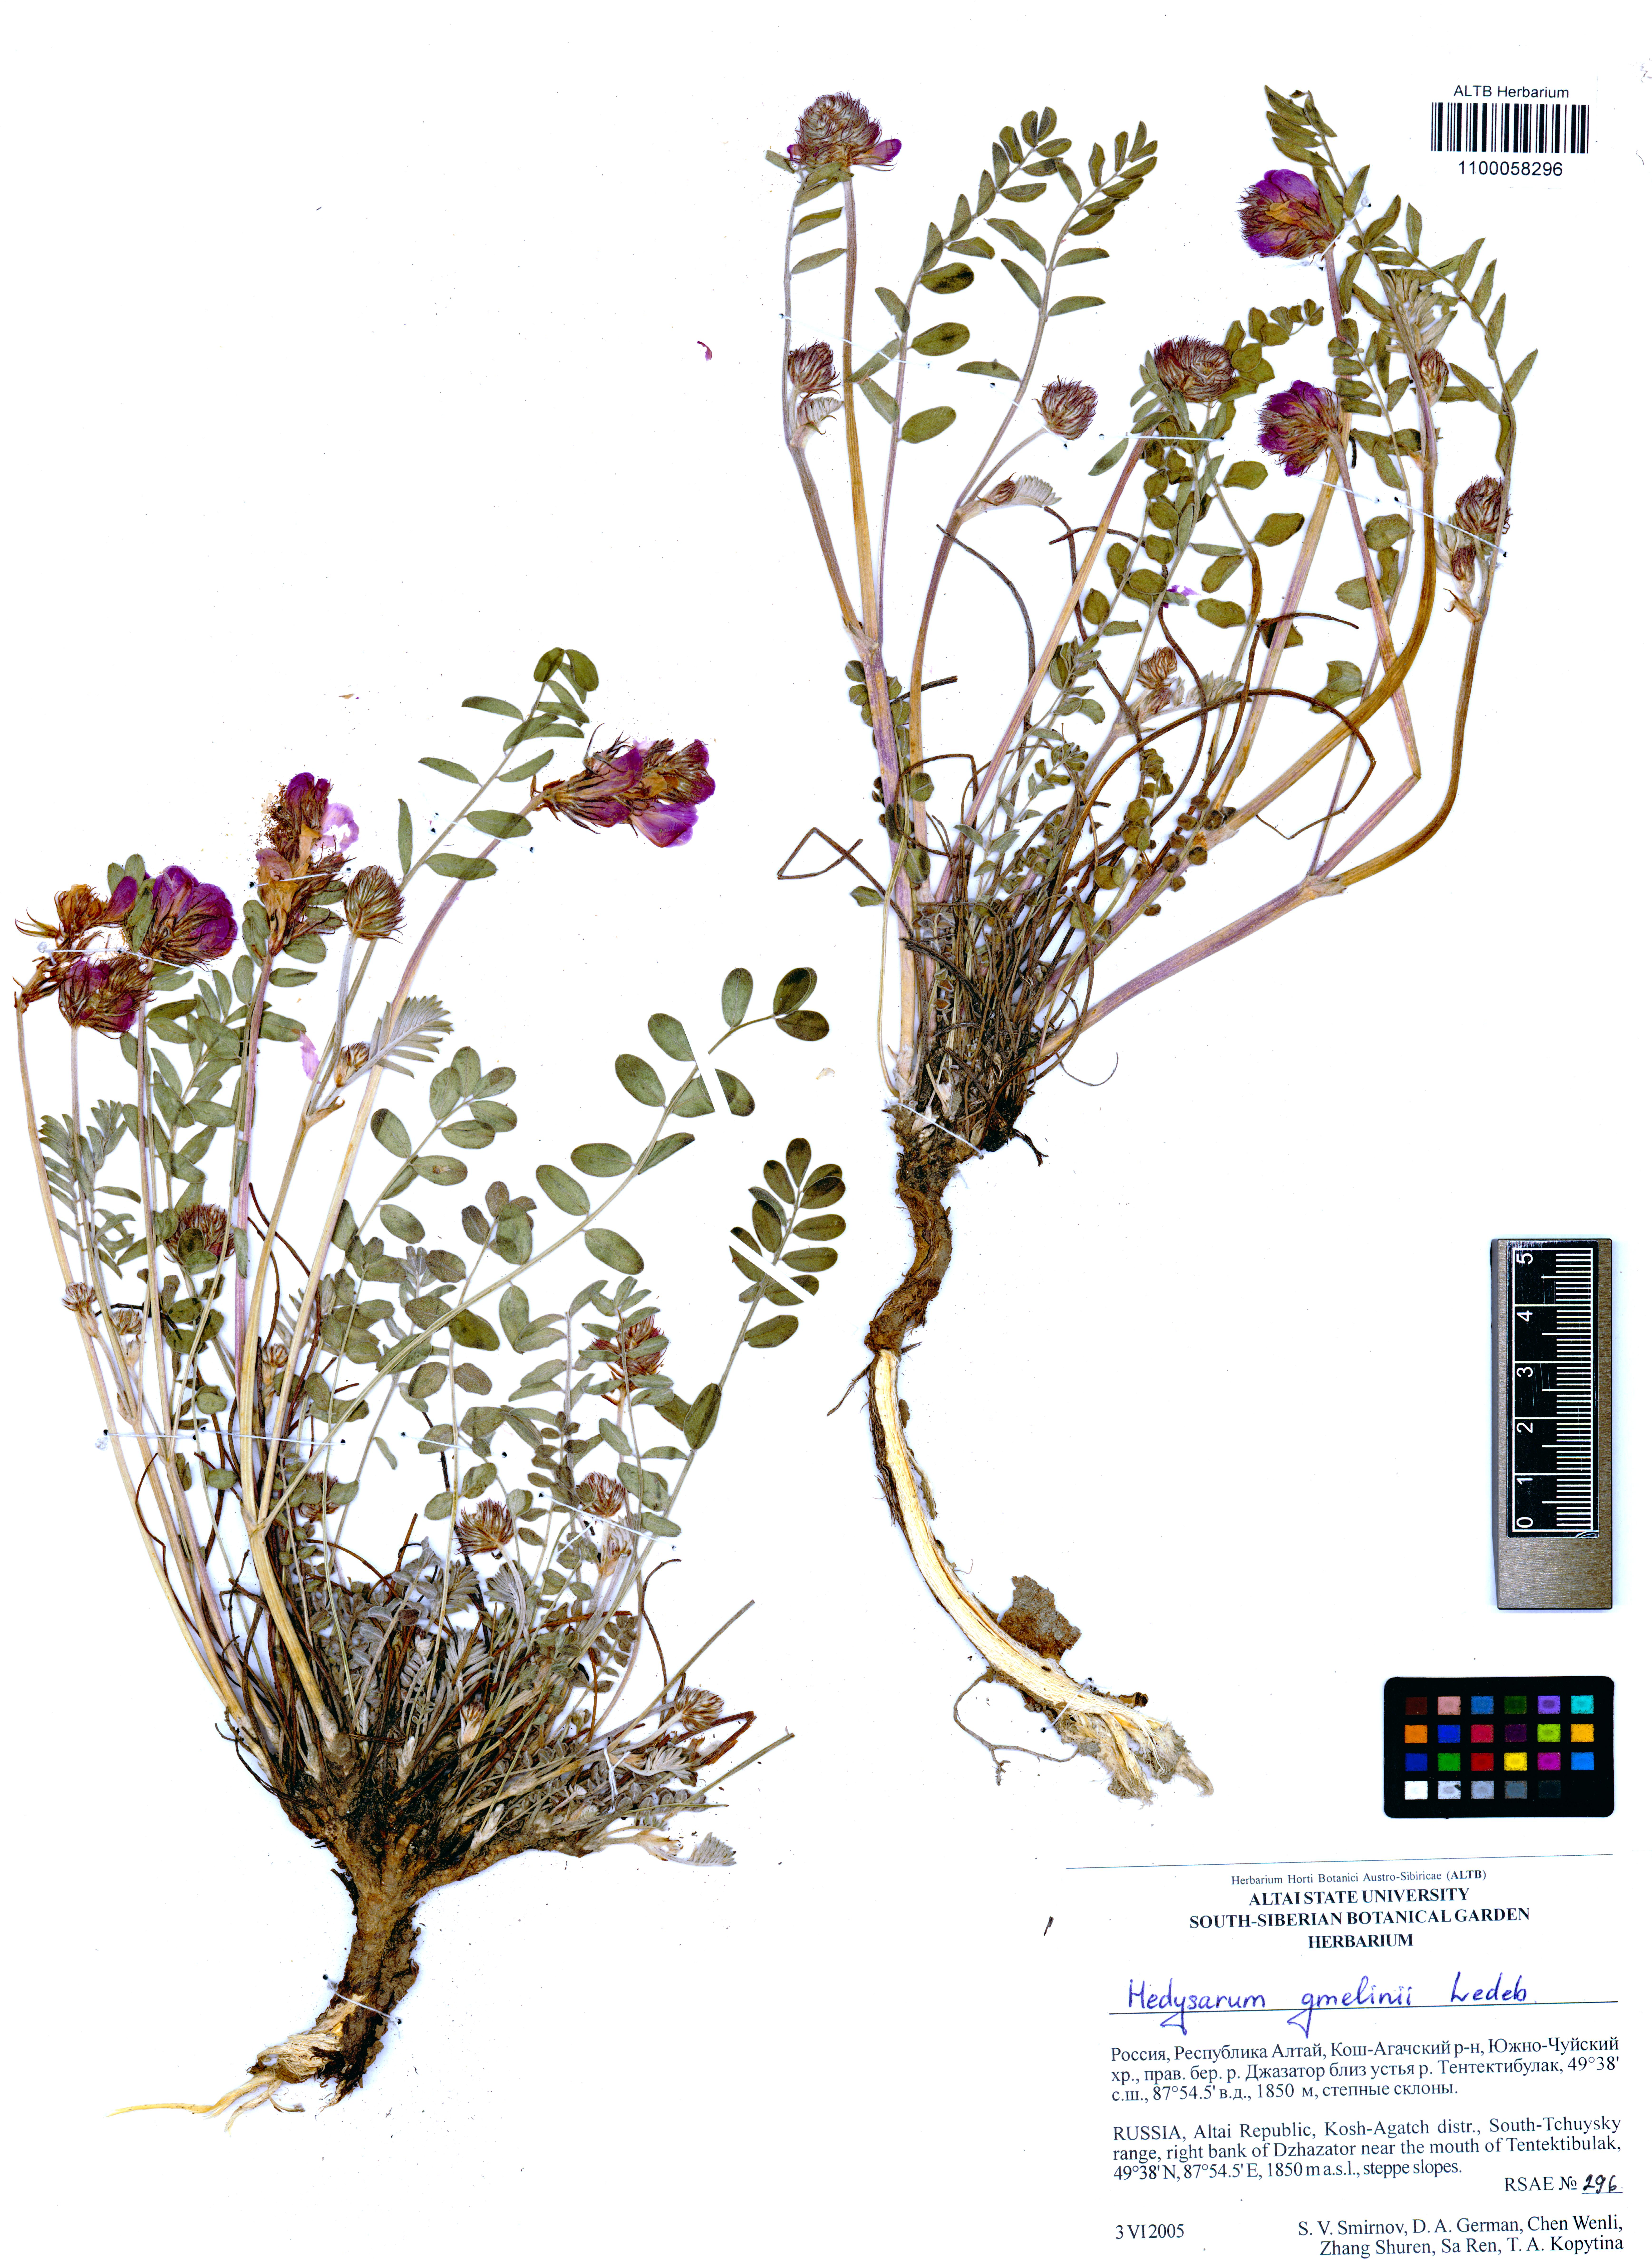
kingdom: Plantae
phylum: Tracheophyta
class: Magnoliopsida
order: Fabales
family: Fabaceae
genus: Hedysarum
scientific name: Hedysarum gmelinii
